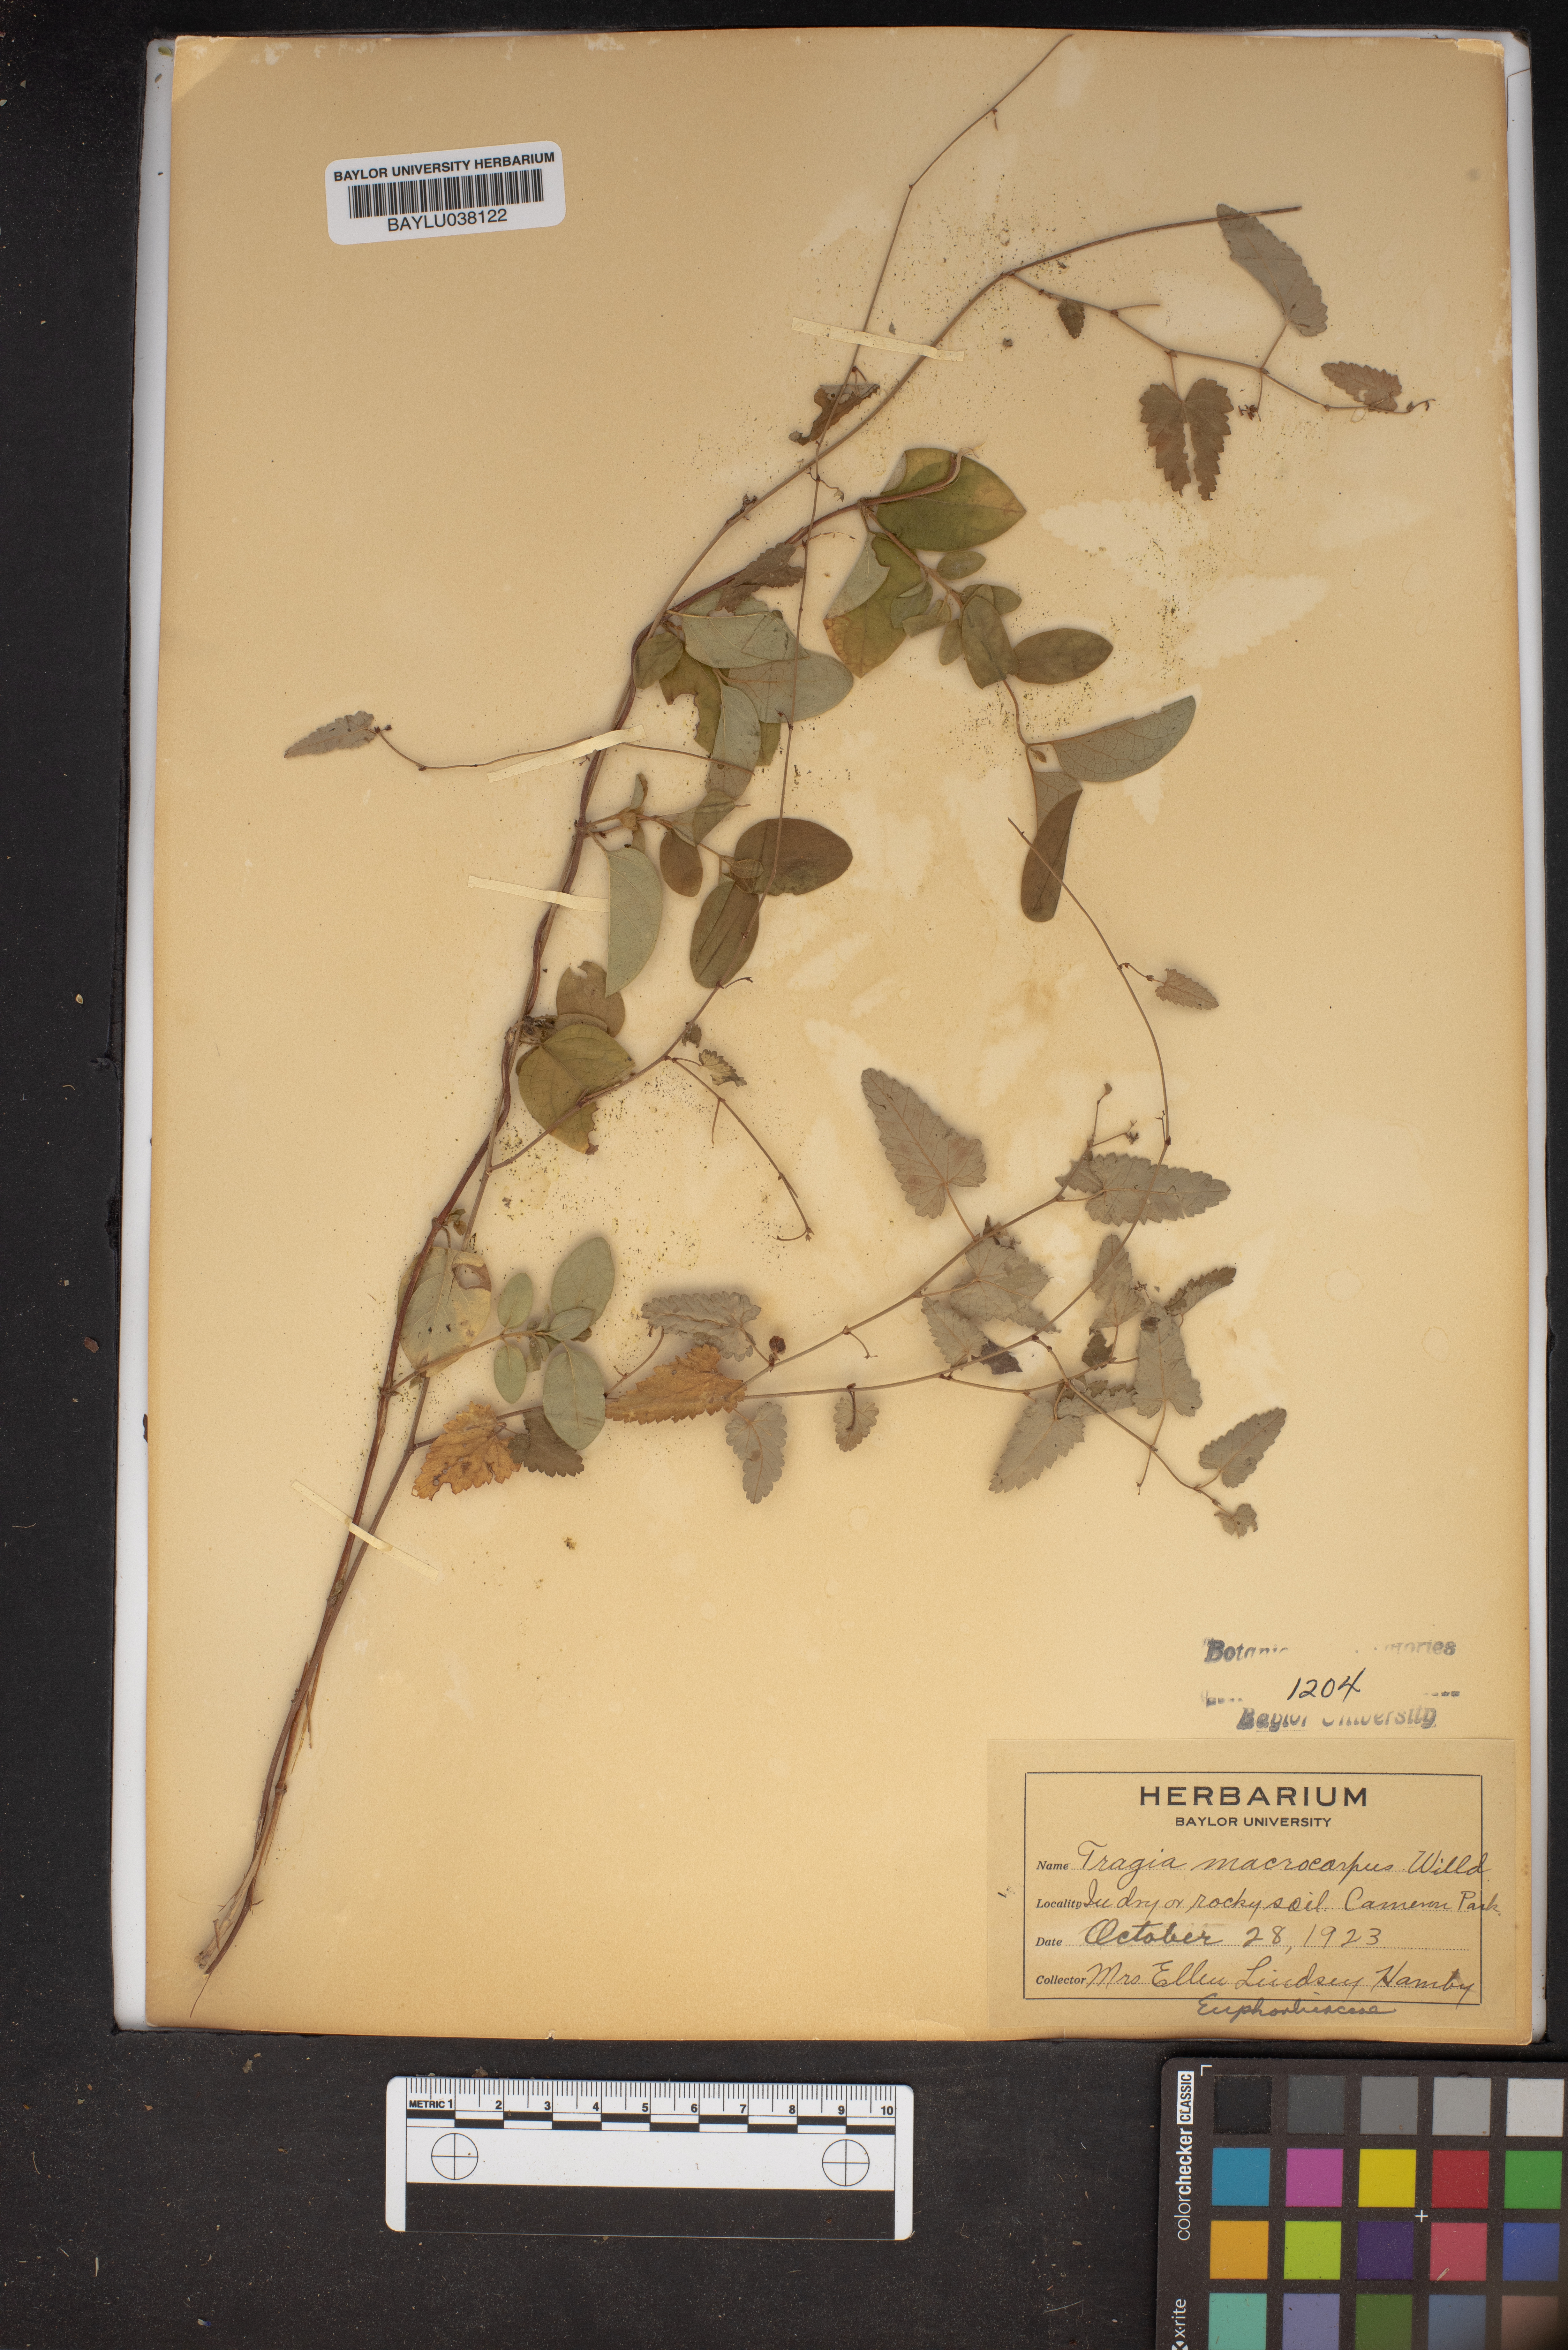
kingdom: Plantae
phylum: Tracheophyta
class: Magnoliopsida
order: Malpighiales
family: Euphorbiaceae
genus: Tragia
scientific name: Tragia cordata
